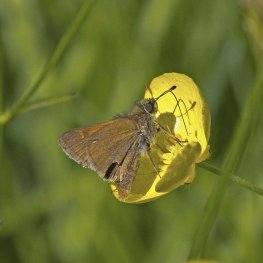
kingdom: Animalia
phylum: Arthropoda
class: Insecta
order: Lepidoptera
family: Hesperiidae
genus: Polites
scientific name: Polites themistocles
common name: Tawny-edged Skipper
